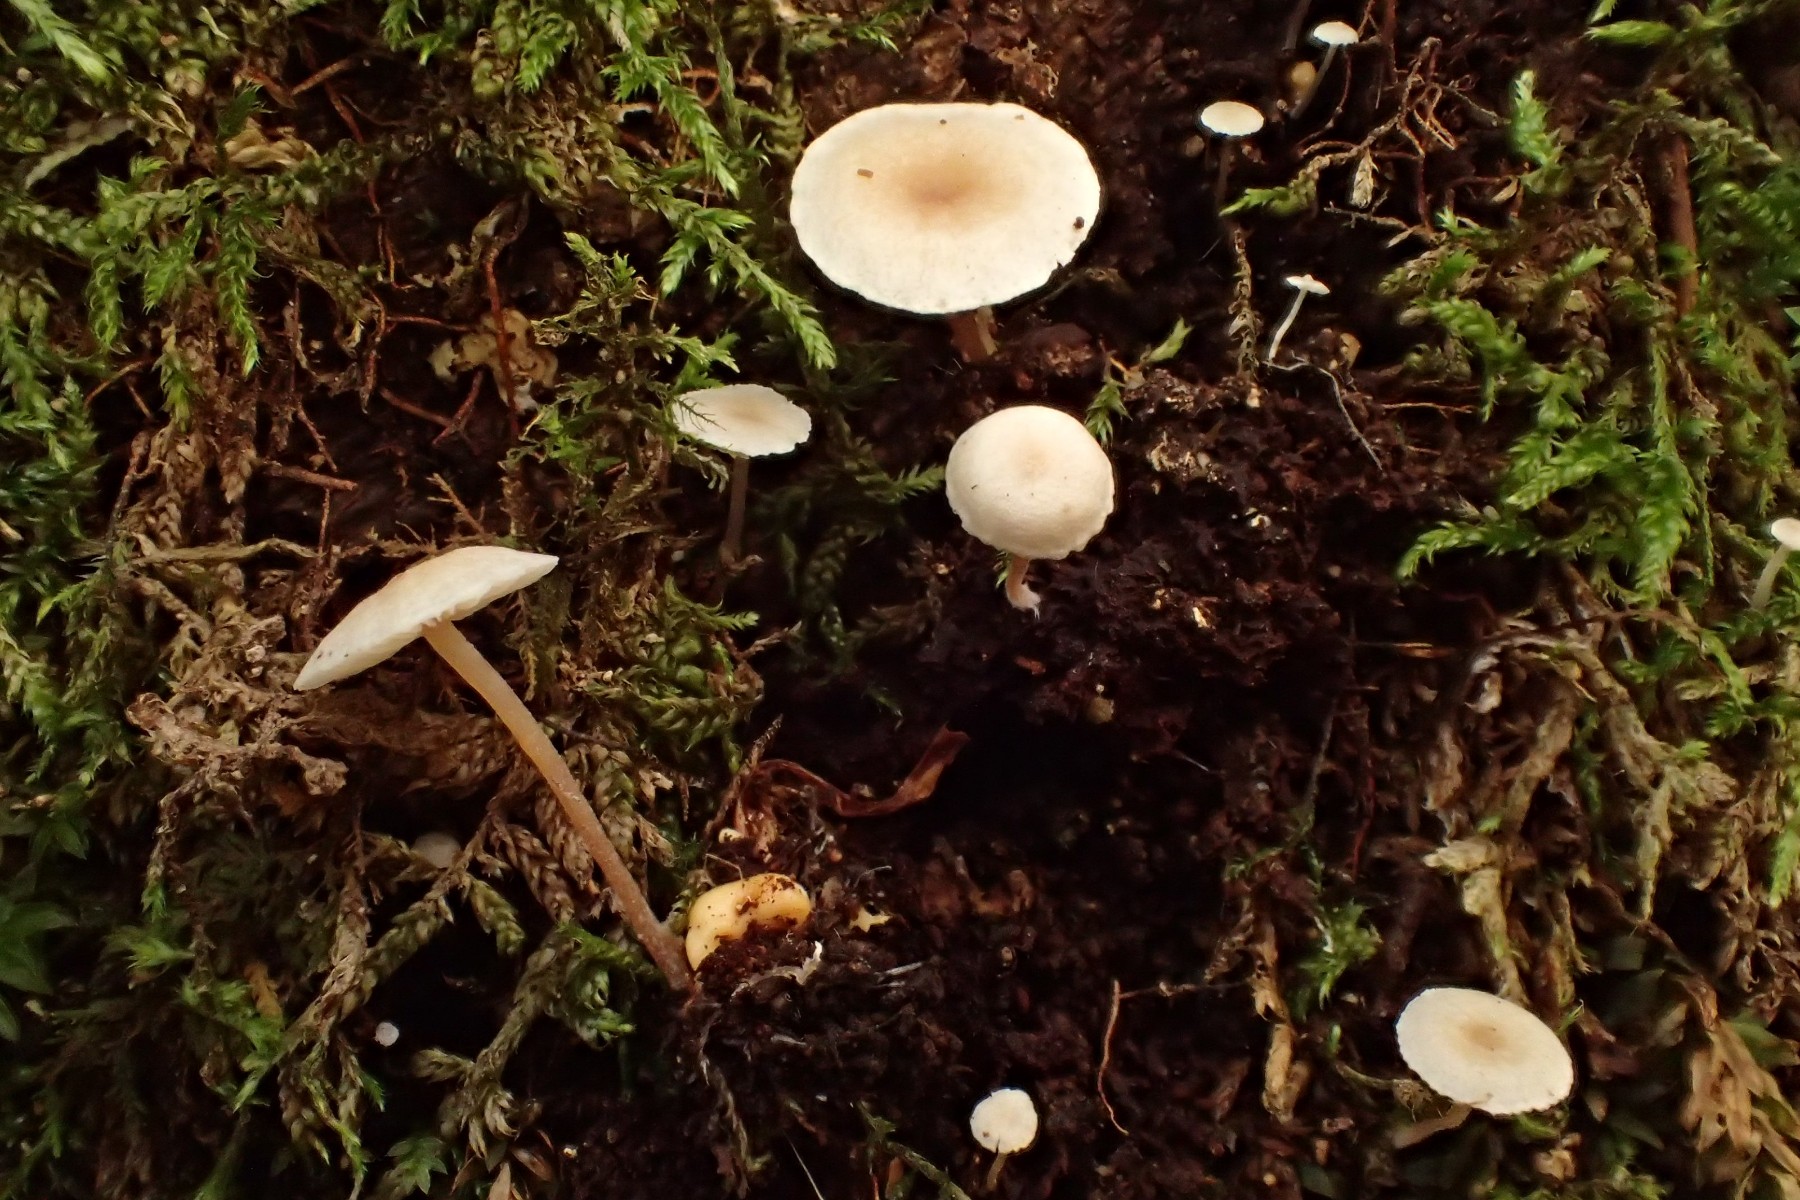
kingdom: Fungi
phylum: Basidiomycota
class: Agaricomycetes
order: Agaricales
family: Tricholomataceae
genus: Collybia
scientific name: Collybia cookei
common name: gulknoldet lighat
